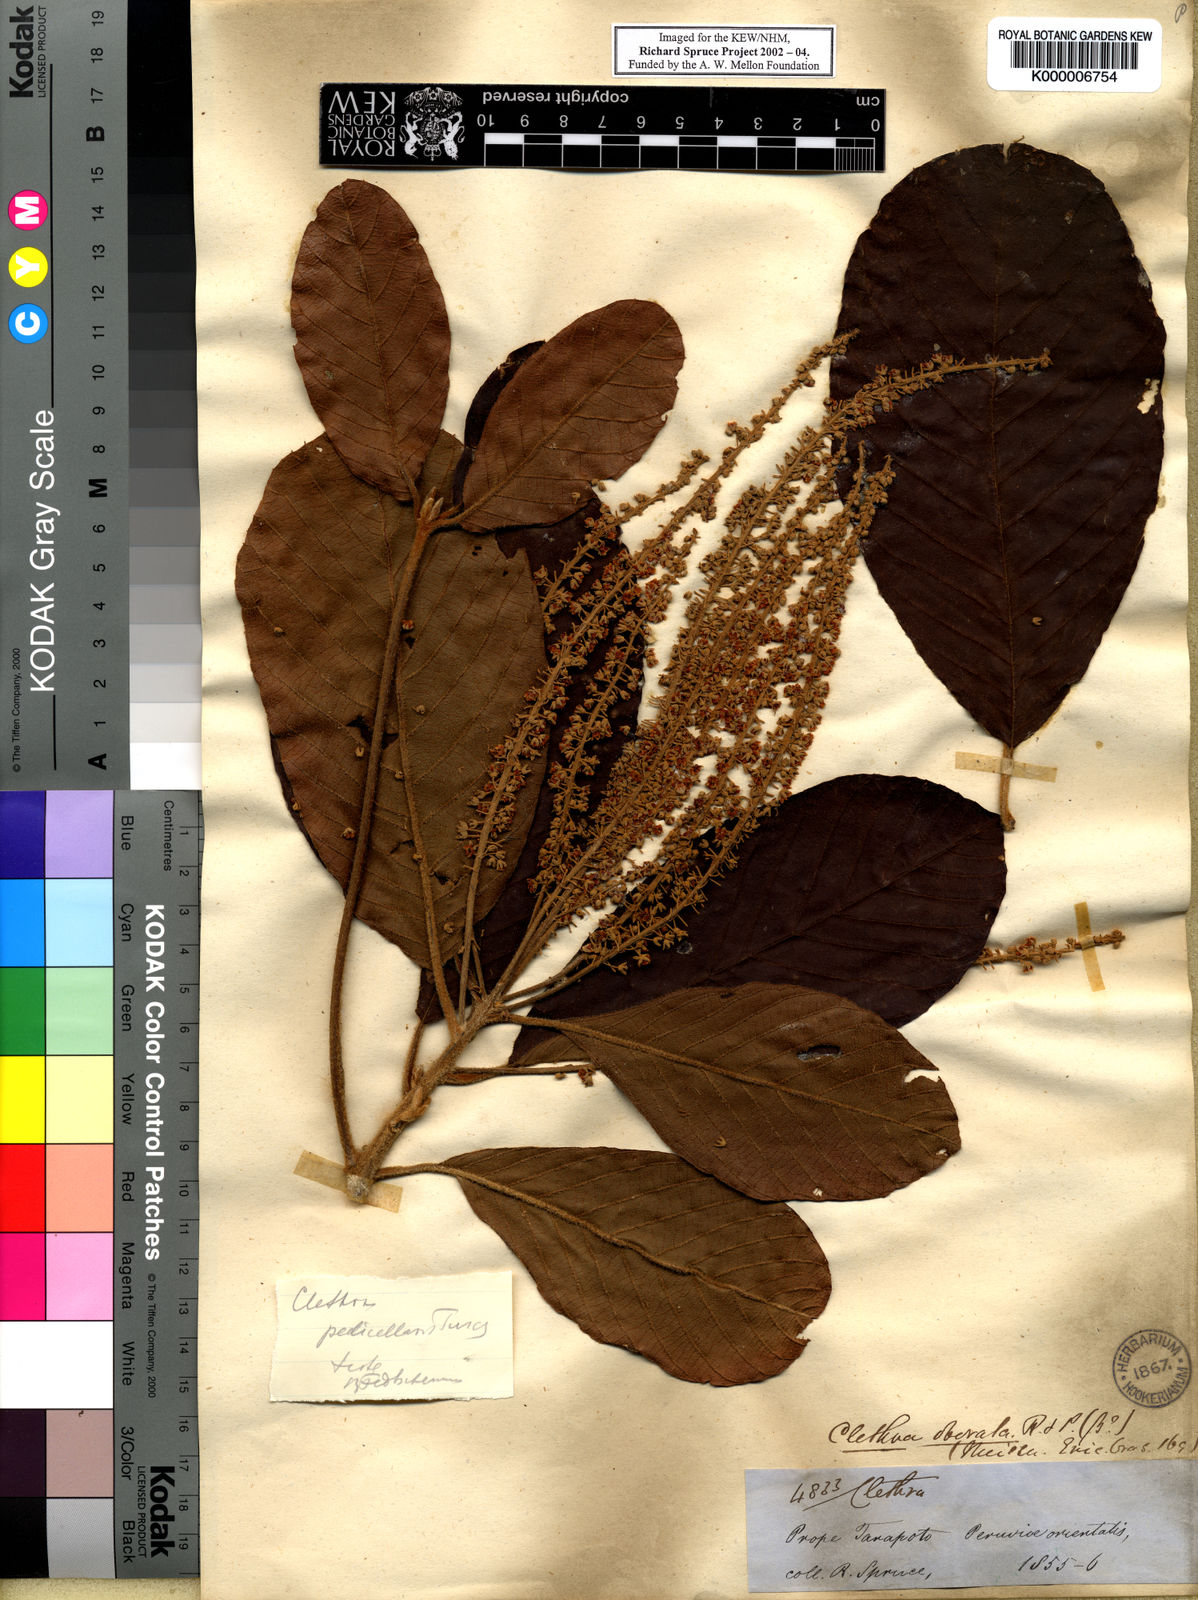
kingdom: Plantae
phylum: Tracheophyta
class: Magnoliopsida
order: Ericales
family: Clethraceae
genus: Clethra
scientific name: Clethra pedicellaris
